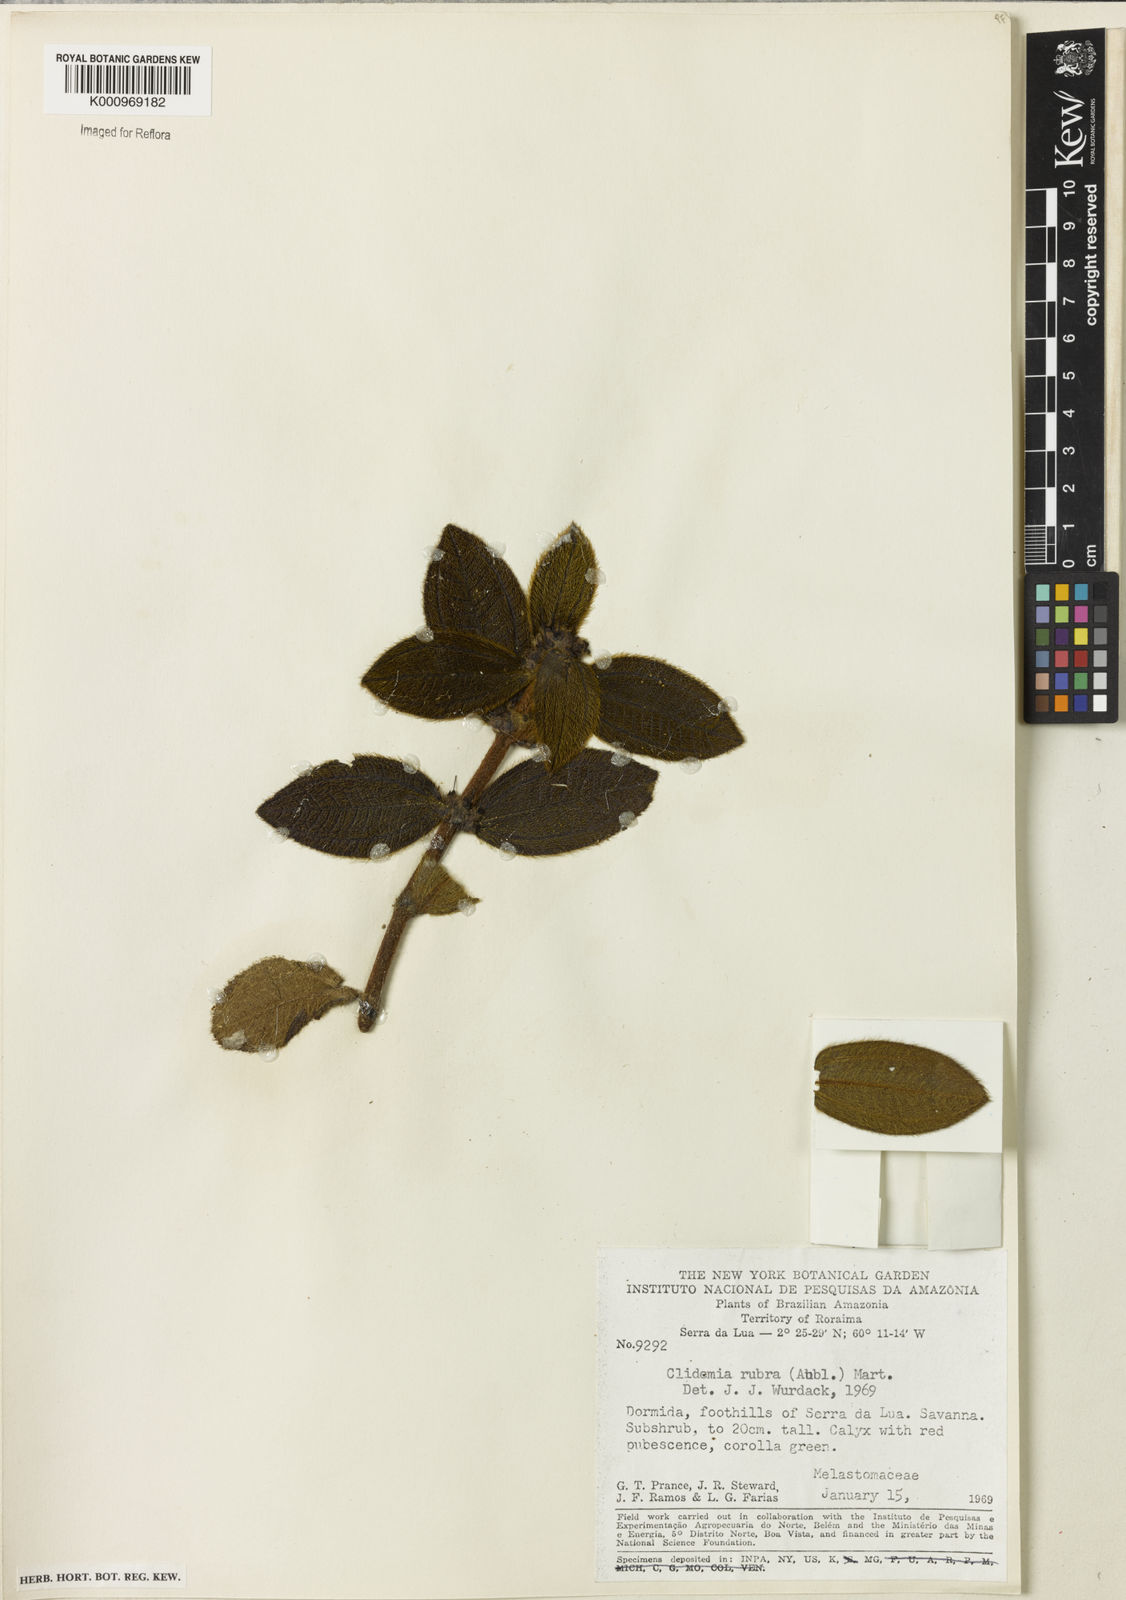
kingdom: Plantae
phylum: Tracheophyta
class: Magnoliopsida
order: Myrtales
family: Melastomataceae
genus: Miconia
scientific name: Miconia rubra
